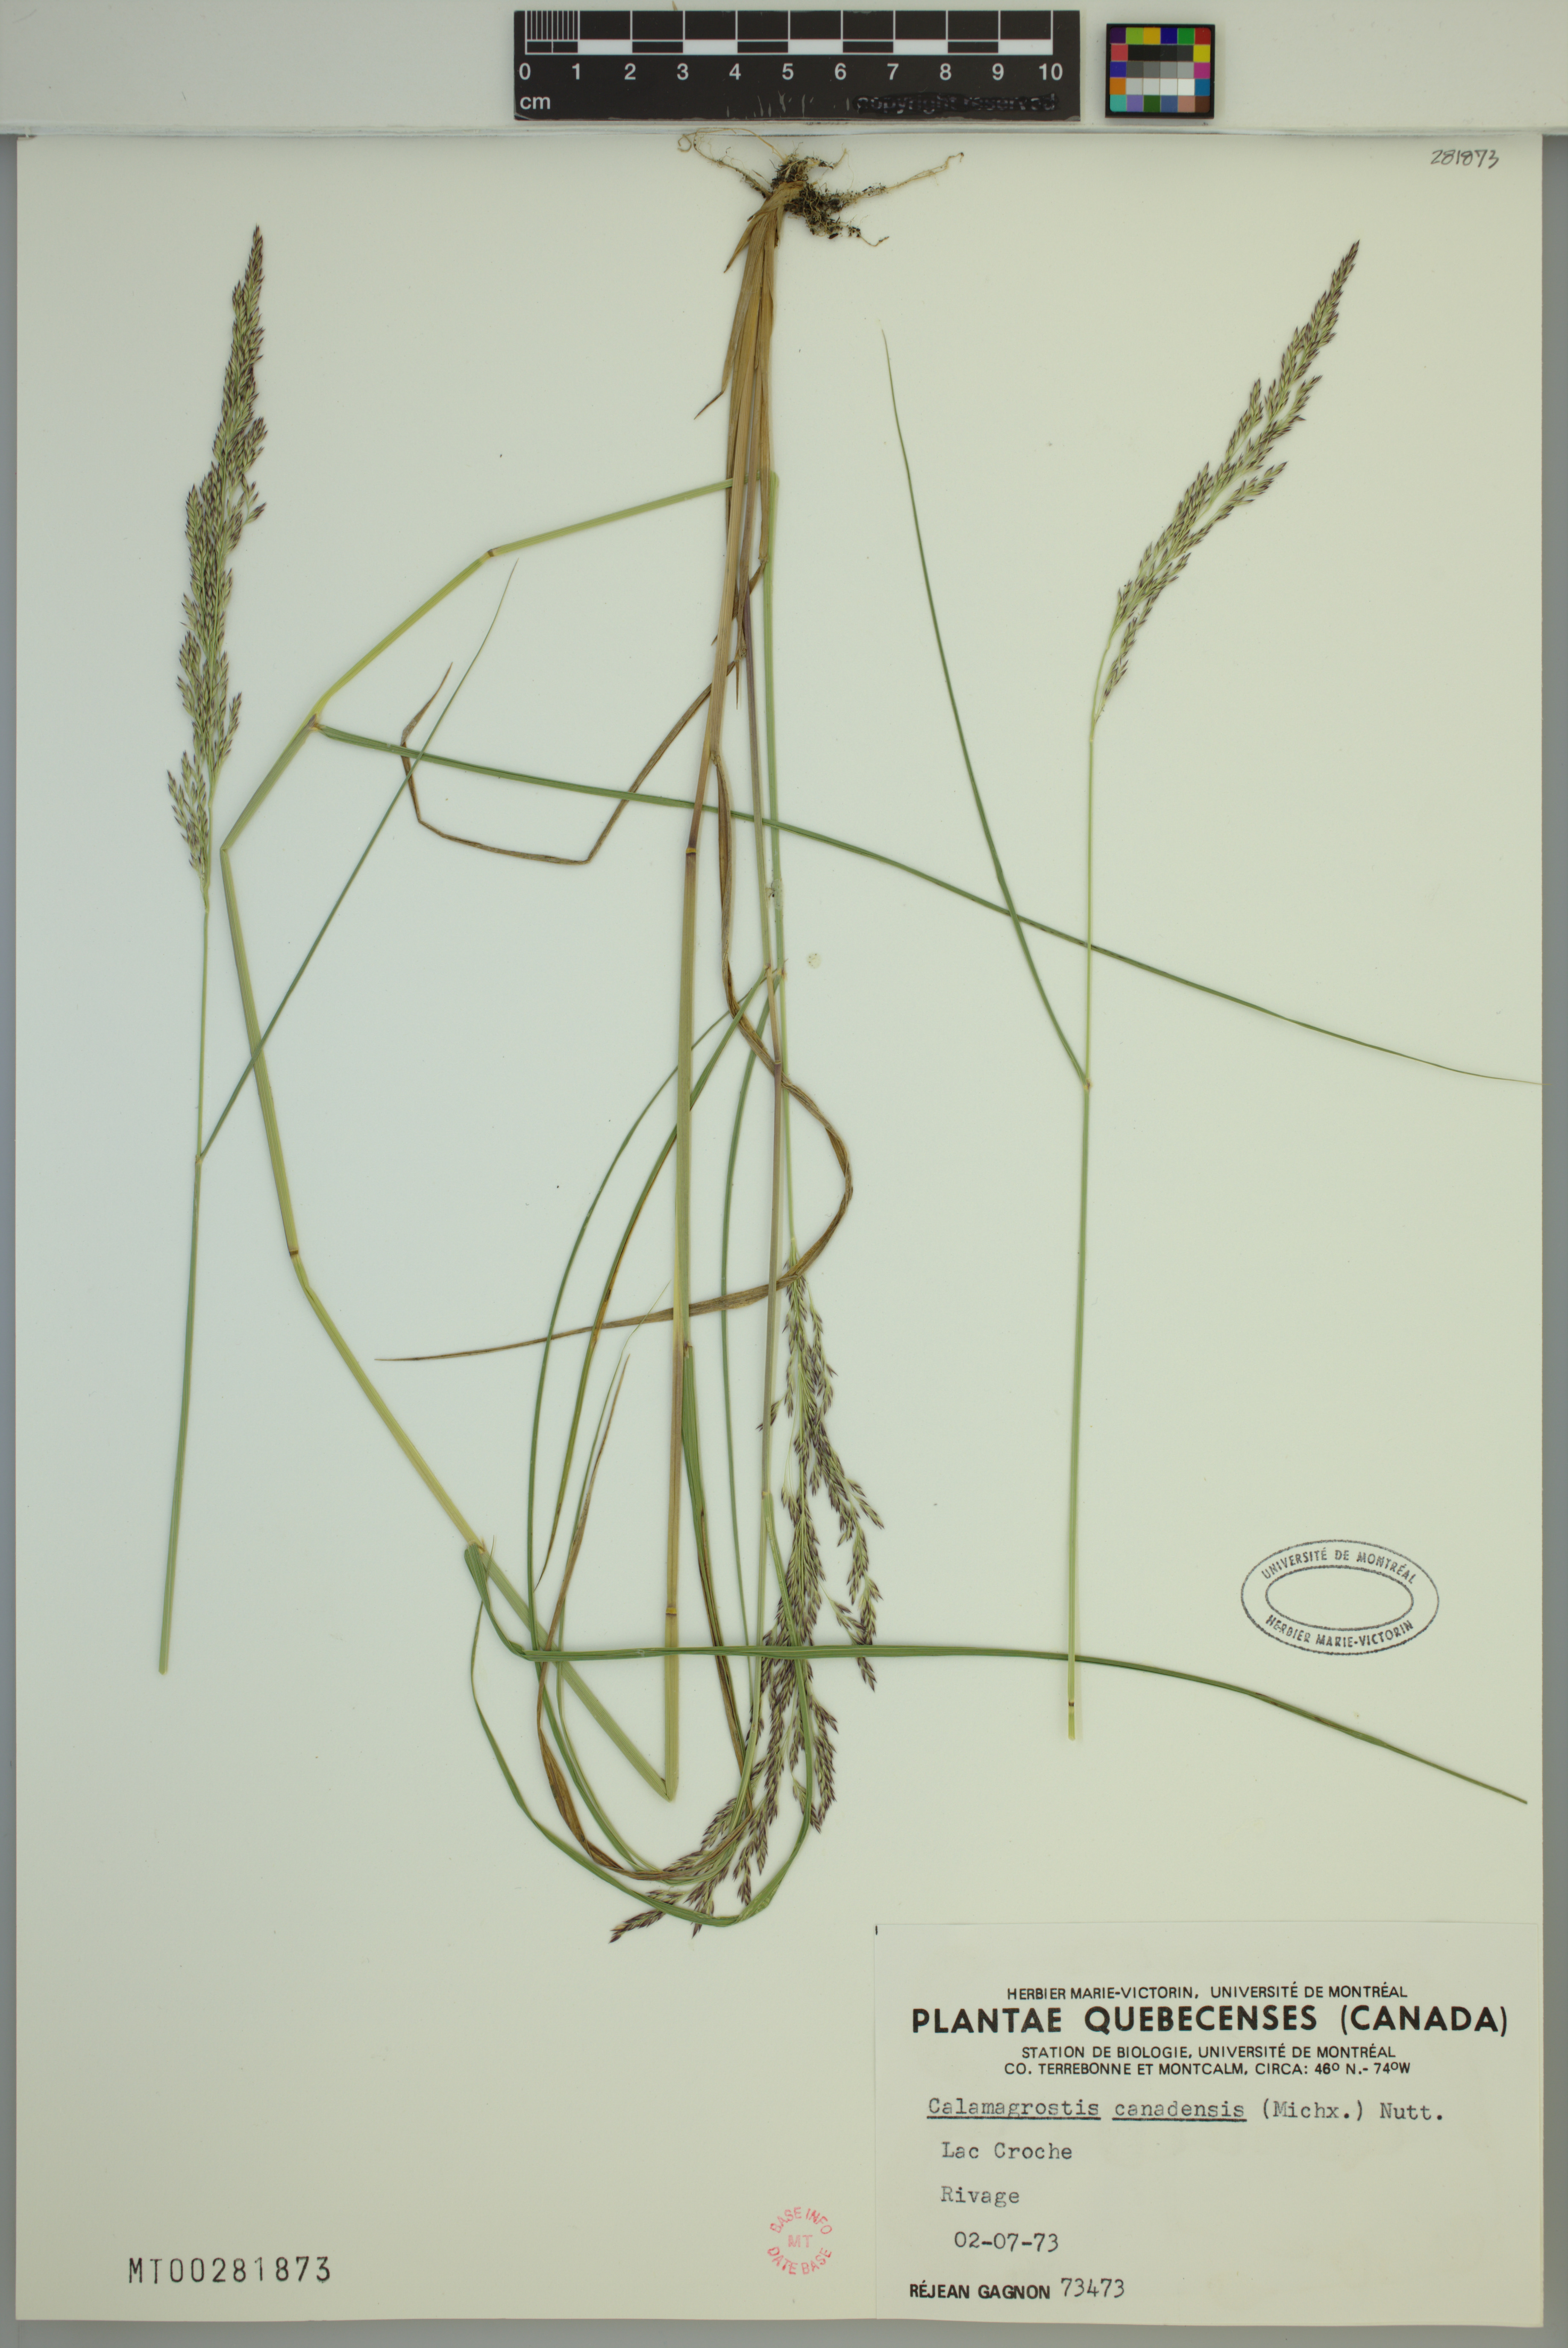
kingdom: Plantae
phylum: Tracheophyta
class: Liliopsida
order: Poales
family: Poaceae
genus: Calamagrostis
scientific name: Calamagrostis canadensis
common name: Canada bluejoint
